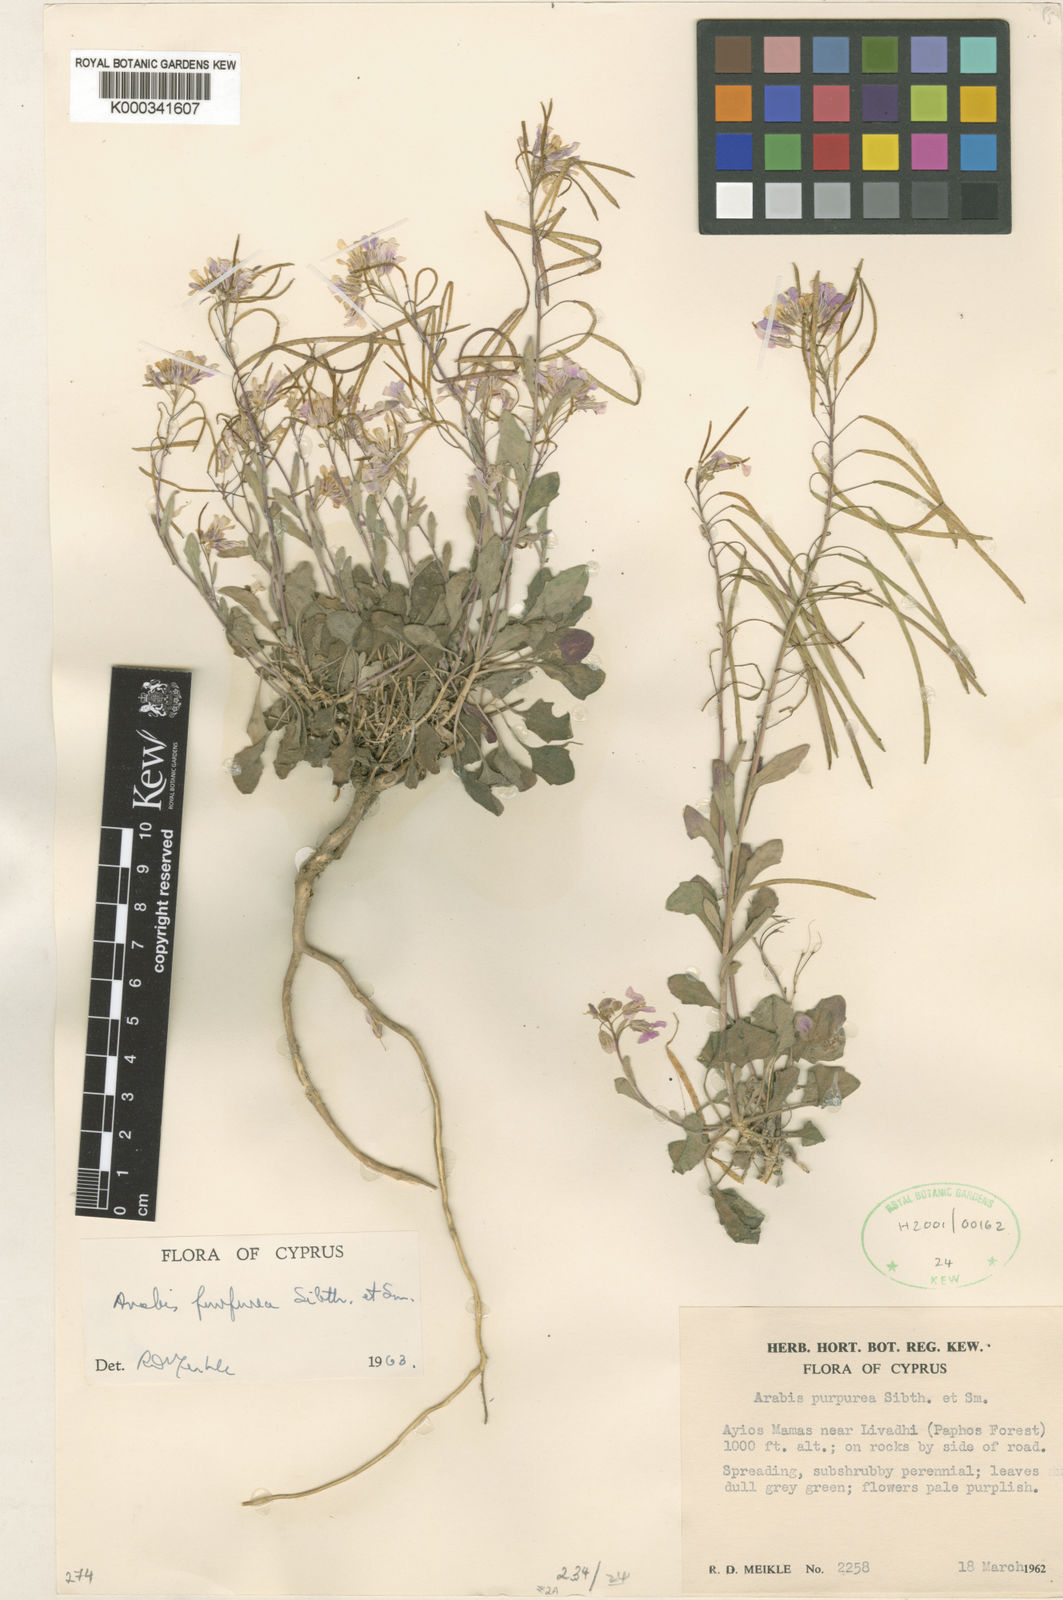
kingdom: Plantae
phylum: Tracheophyta
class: Magnoliopsida
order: Brassicales
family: Brassicaceae
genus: Arabis
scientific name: Arabis purpurea
